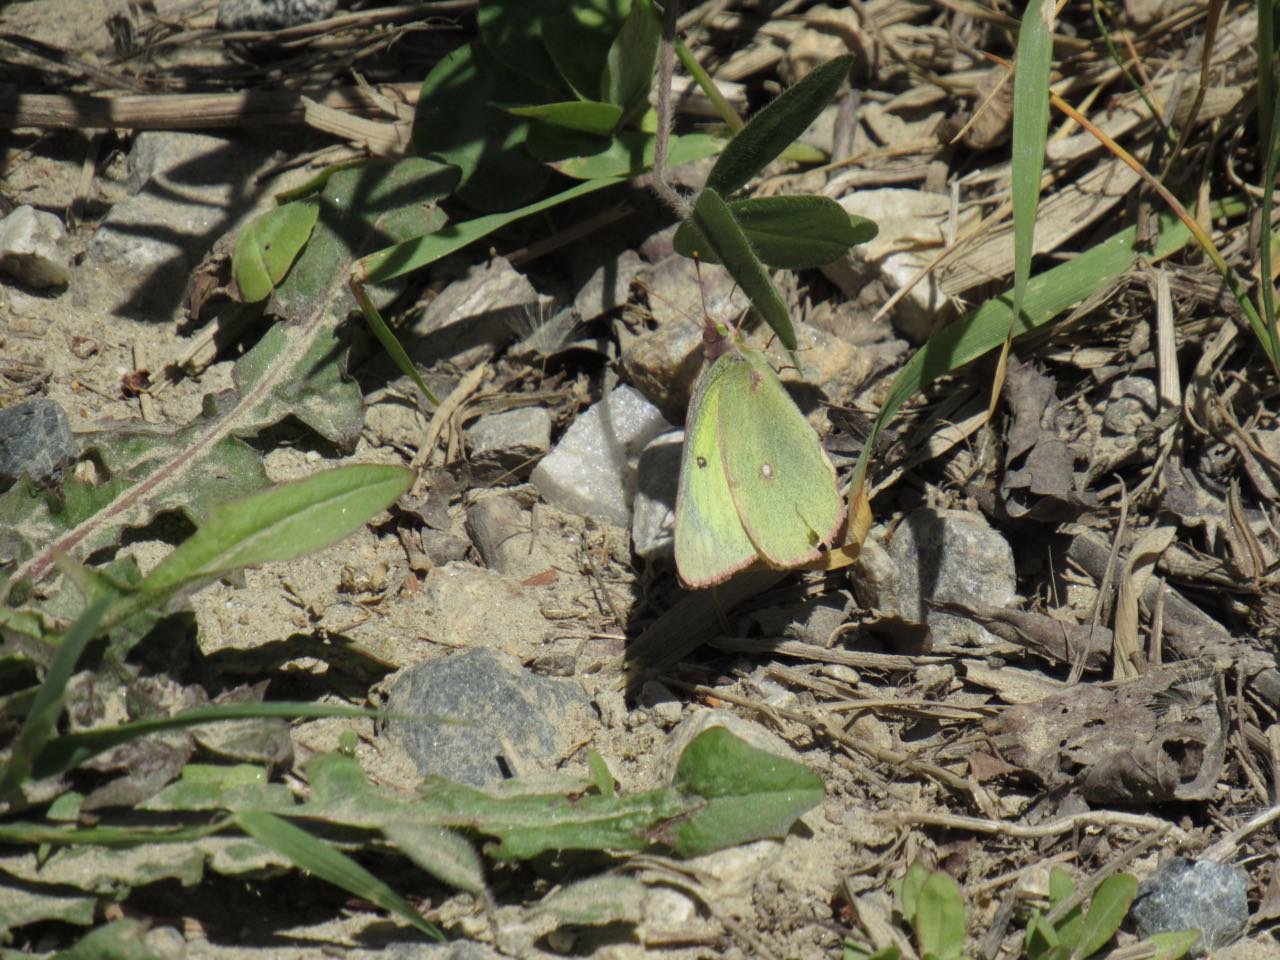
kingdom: Animalia
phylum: Arthropoda
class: Insecta
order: Lepidoptera
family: Pieridae
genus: Colias
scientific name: Colias philodice
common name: Clouded Sulphur
